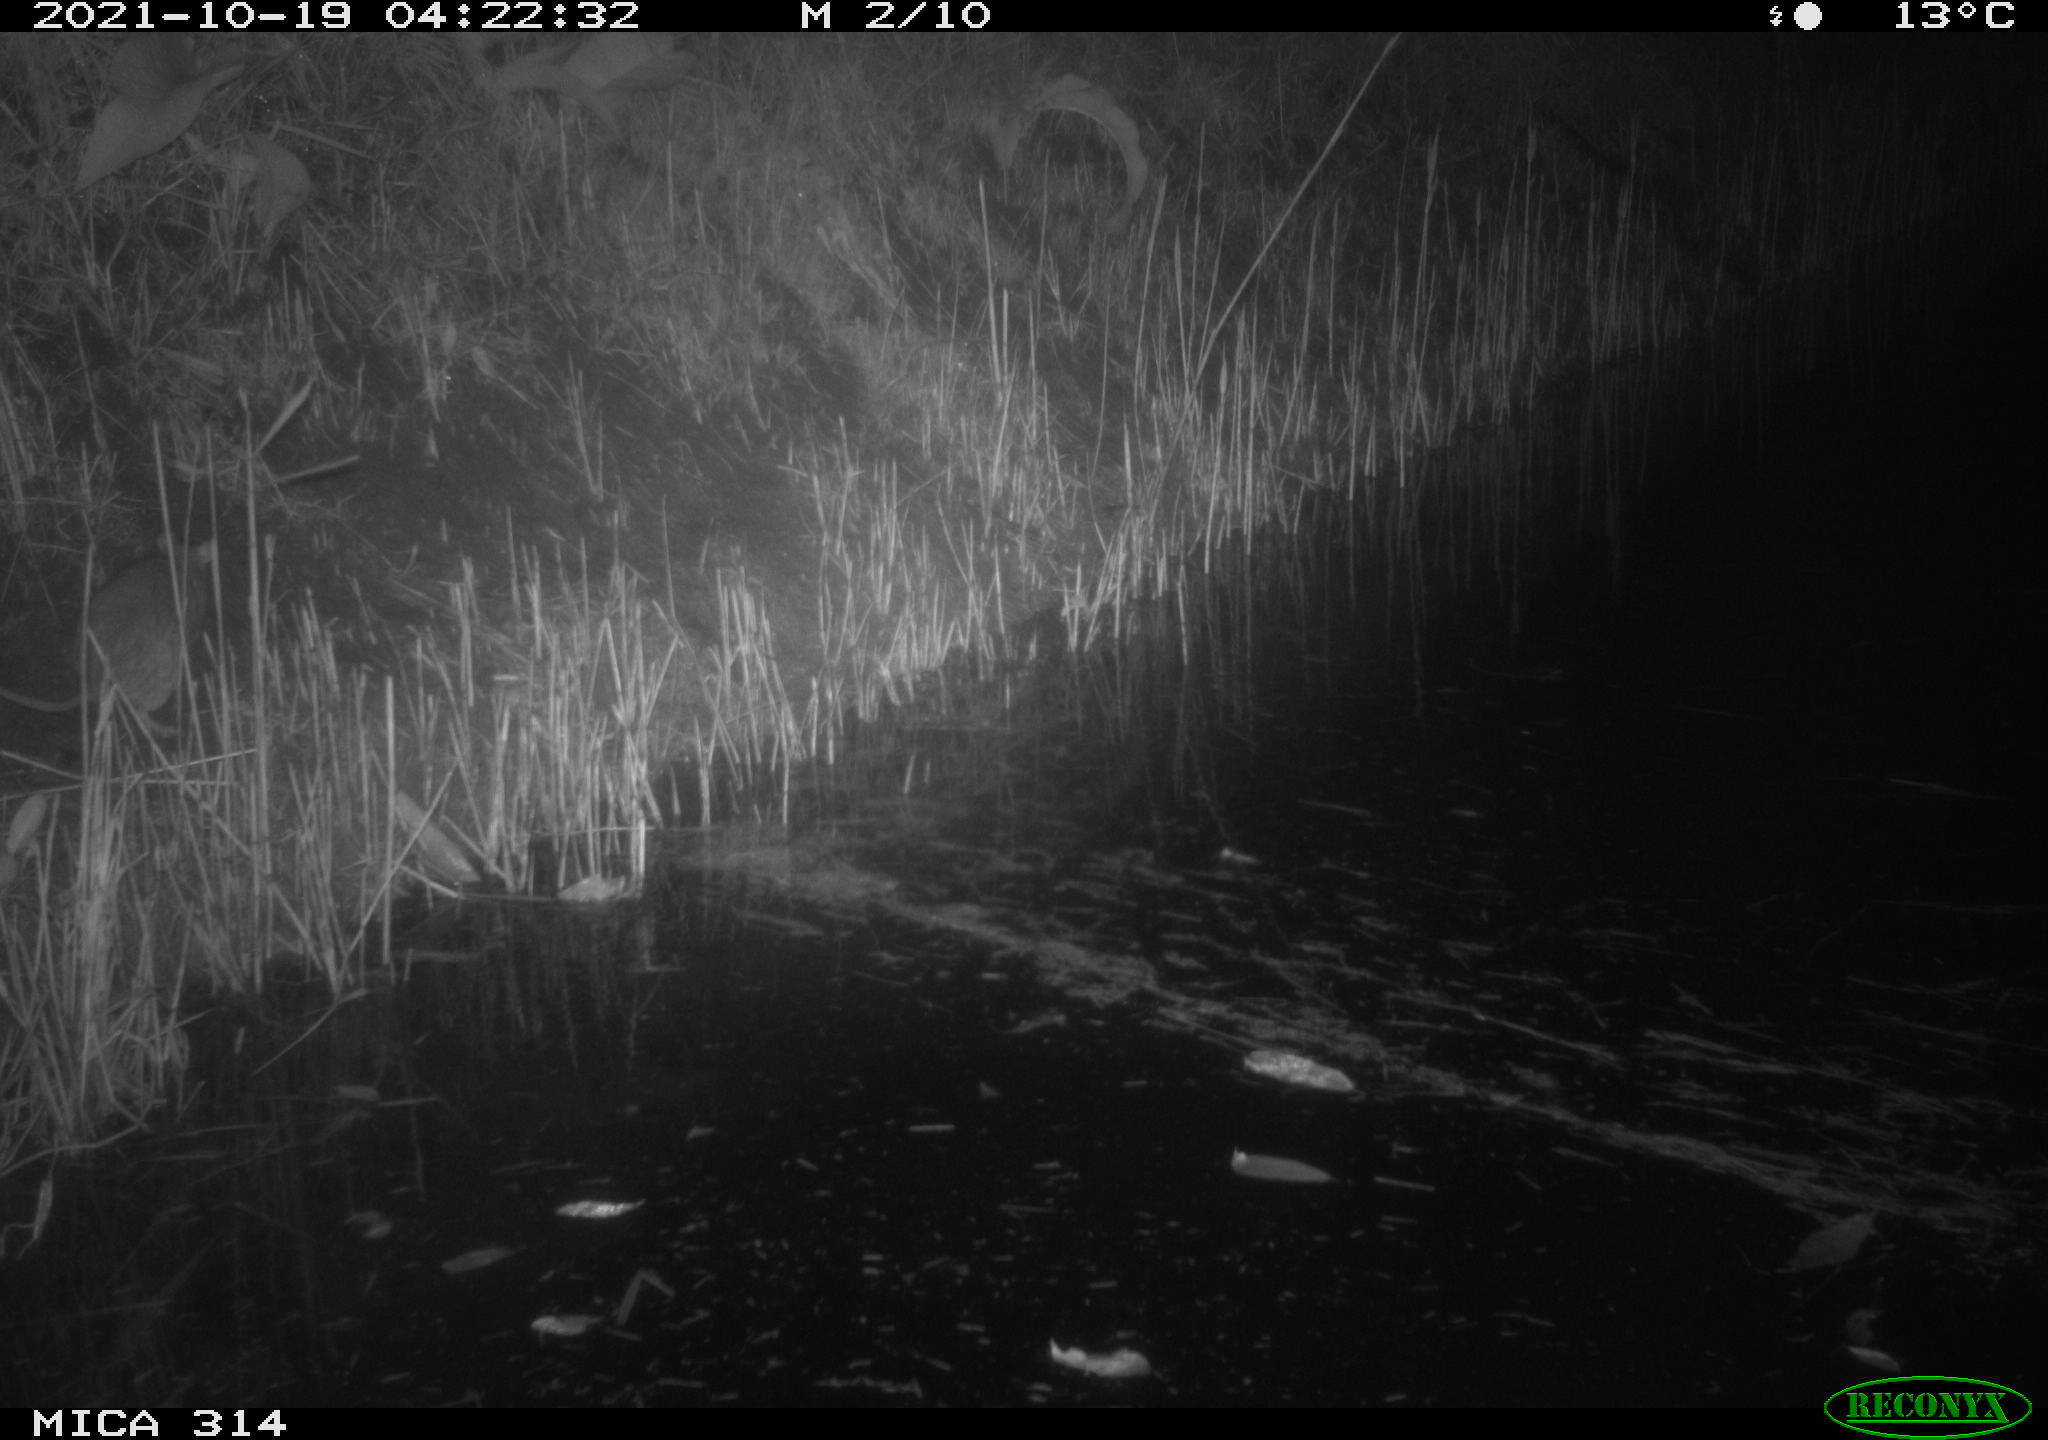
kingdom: Animalia
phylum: Chordata
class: Mammalia
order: Rodentia
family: Muridae
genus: Rattus
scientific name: Rattus norvegicus
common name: Brown rat
